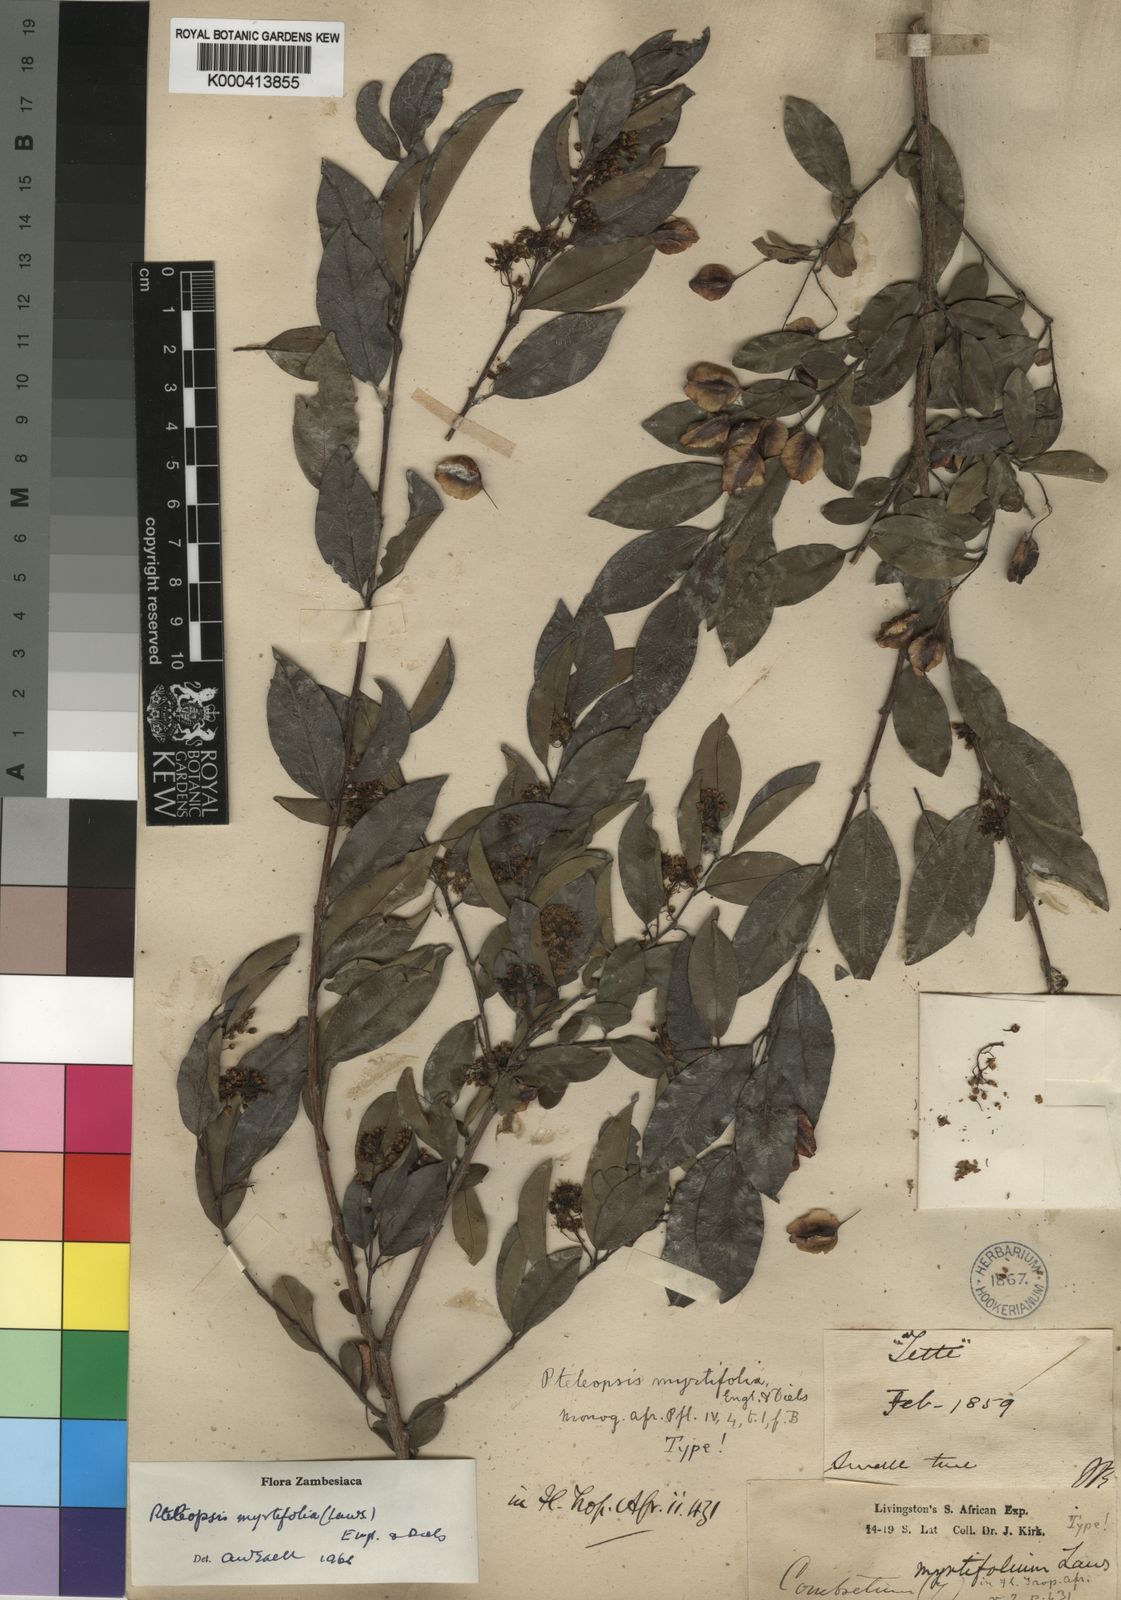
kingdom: Plantae
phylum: Tracheophyta
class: Magnoliopsida
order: Myrtales
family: Combretaceae
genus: Terminalia
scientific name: Terminalia myrtifolia
